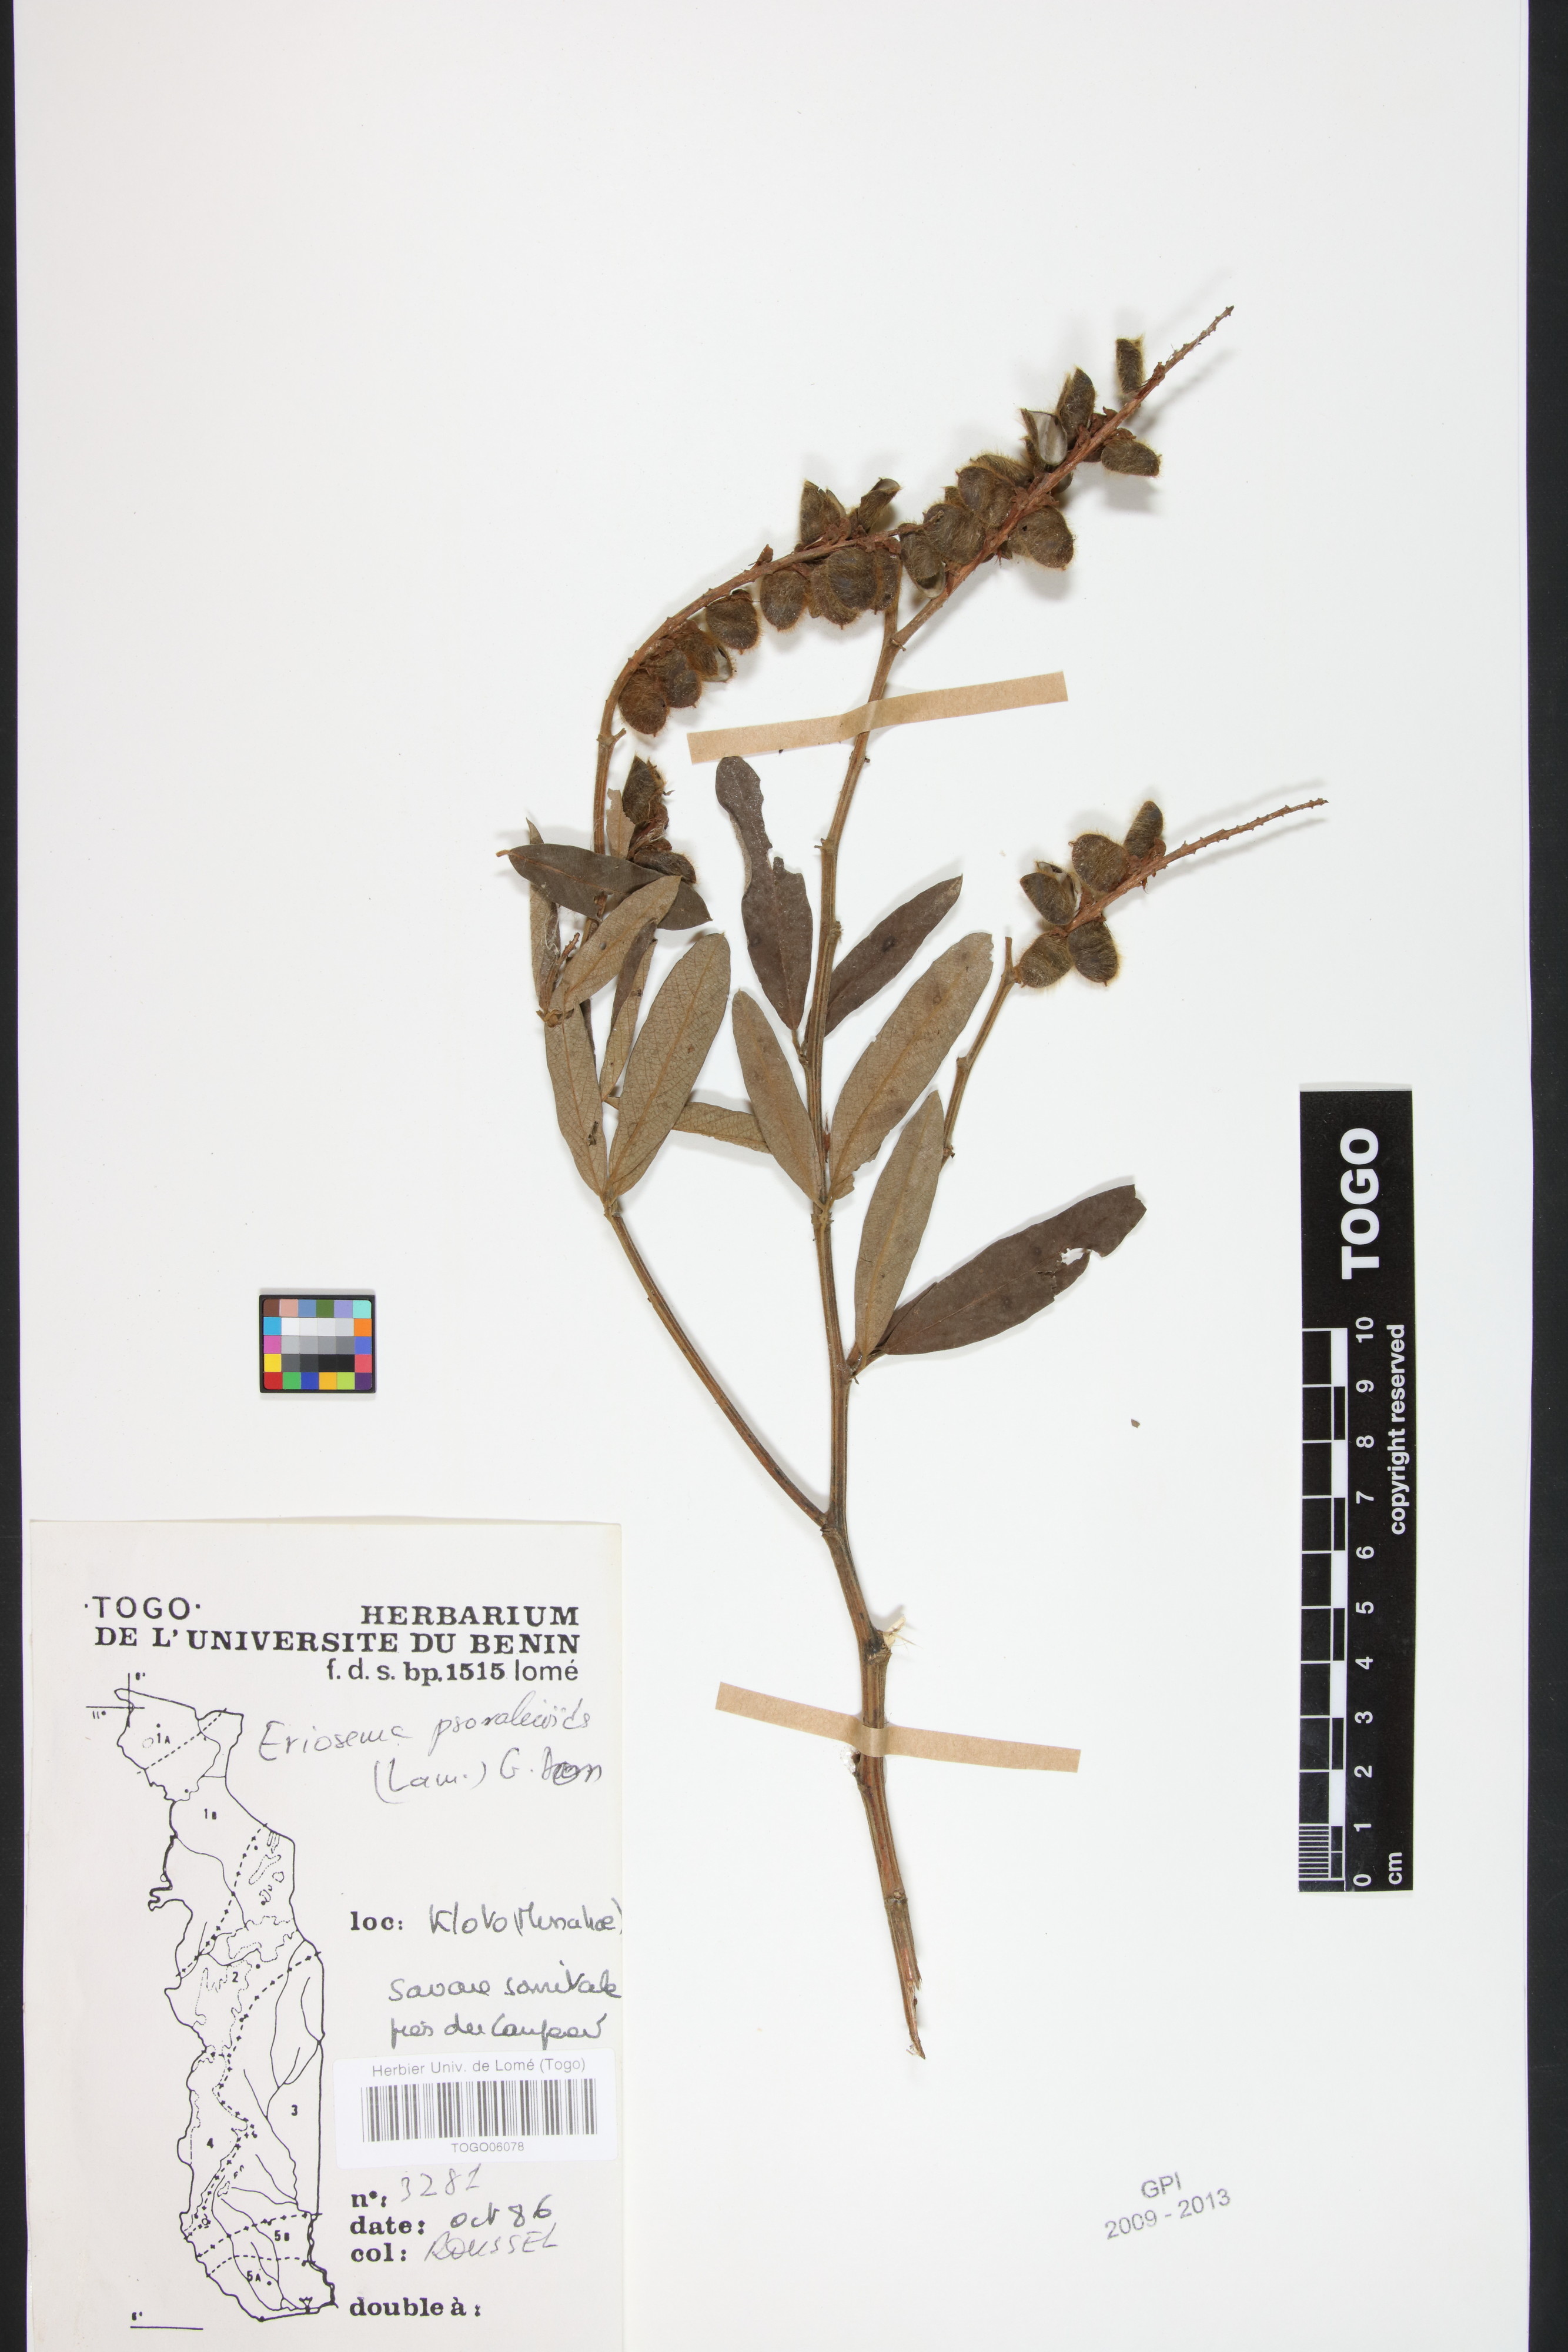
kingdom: Plantae
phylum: Tracheophyta
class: Magnoliopsida
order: Fabales
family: Fabaceae
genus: Eriosema
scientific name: Eriosema psoraleoides
